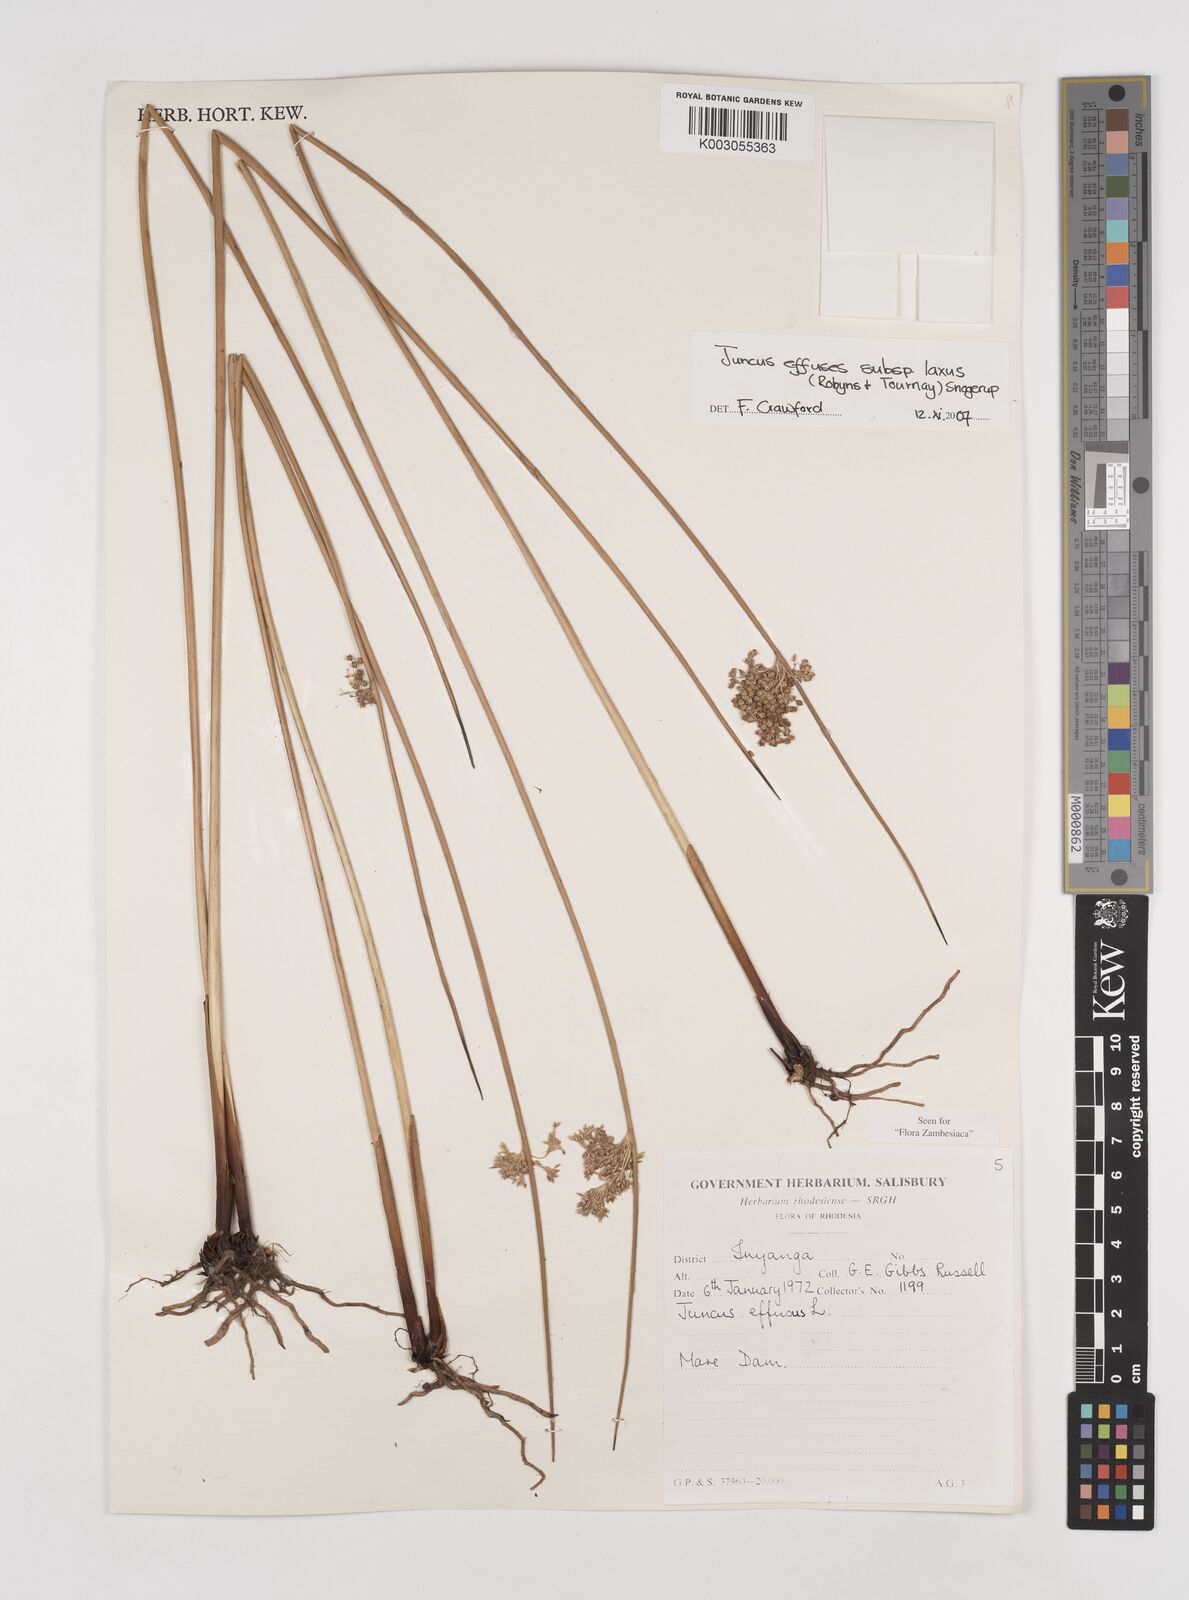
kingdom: Plantae
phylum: Tracheophyta
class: Liliopsida
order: Poales
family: Juncaceae
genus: Juncus
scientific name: Juncus effusus
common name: Soft rush
